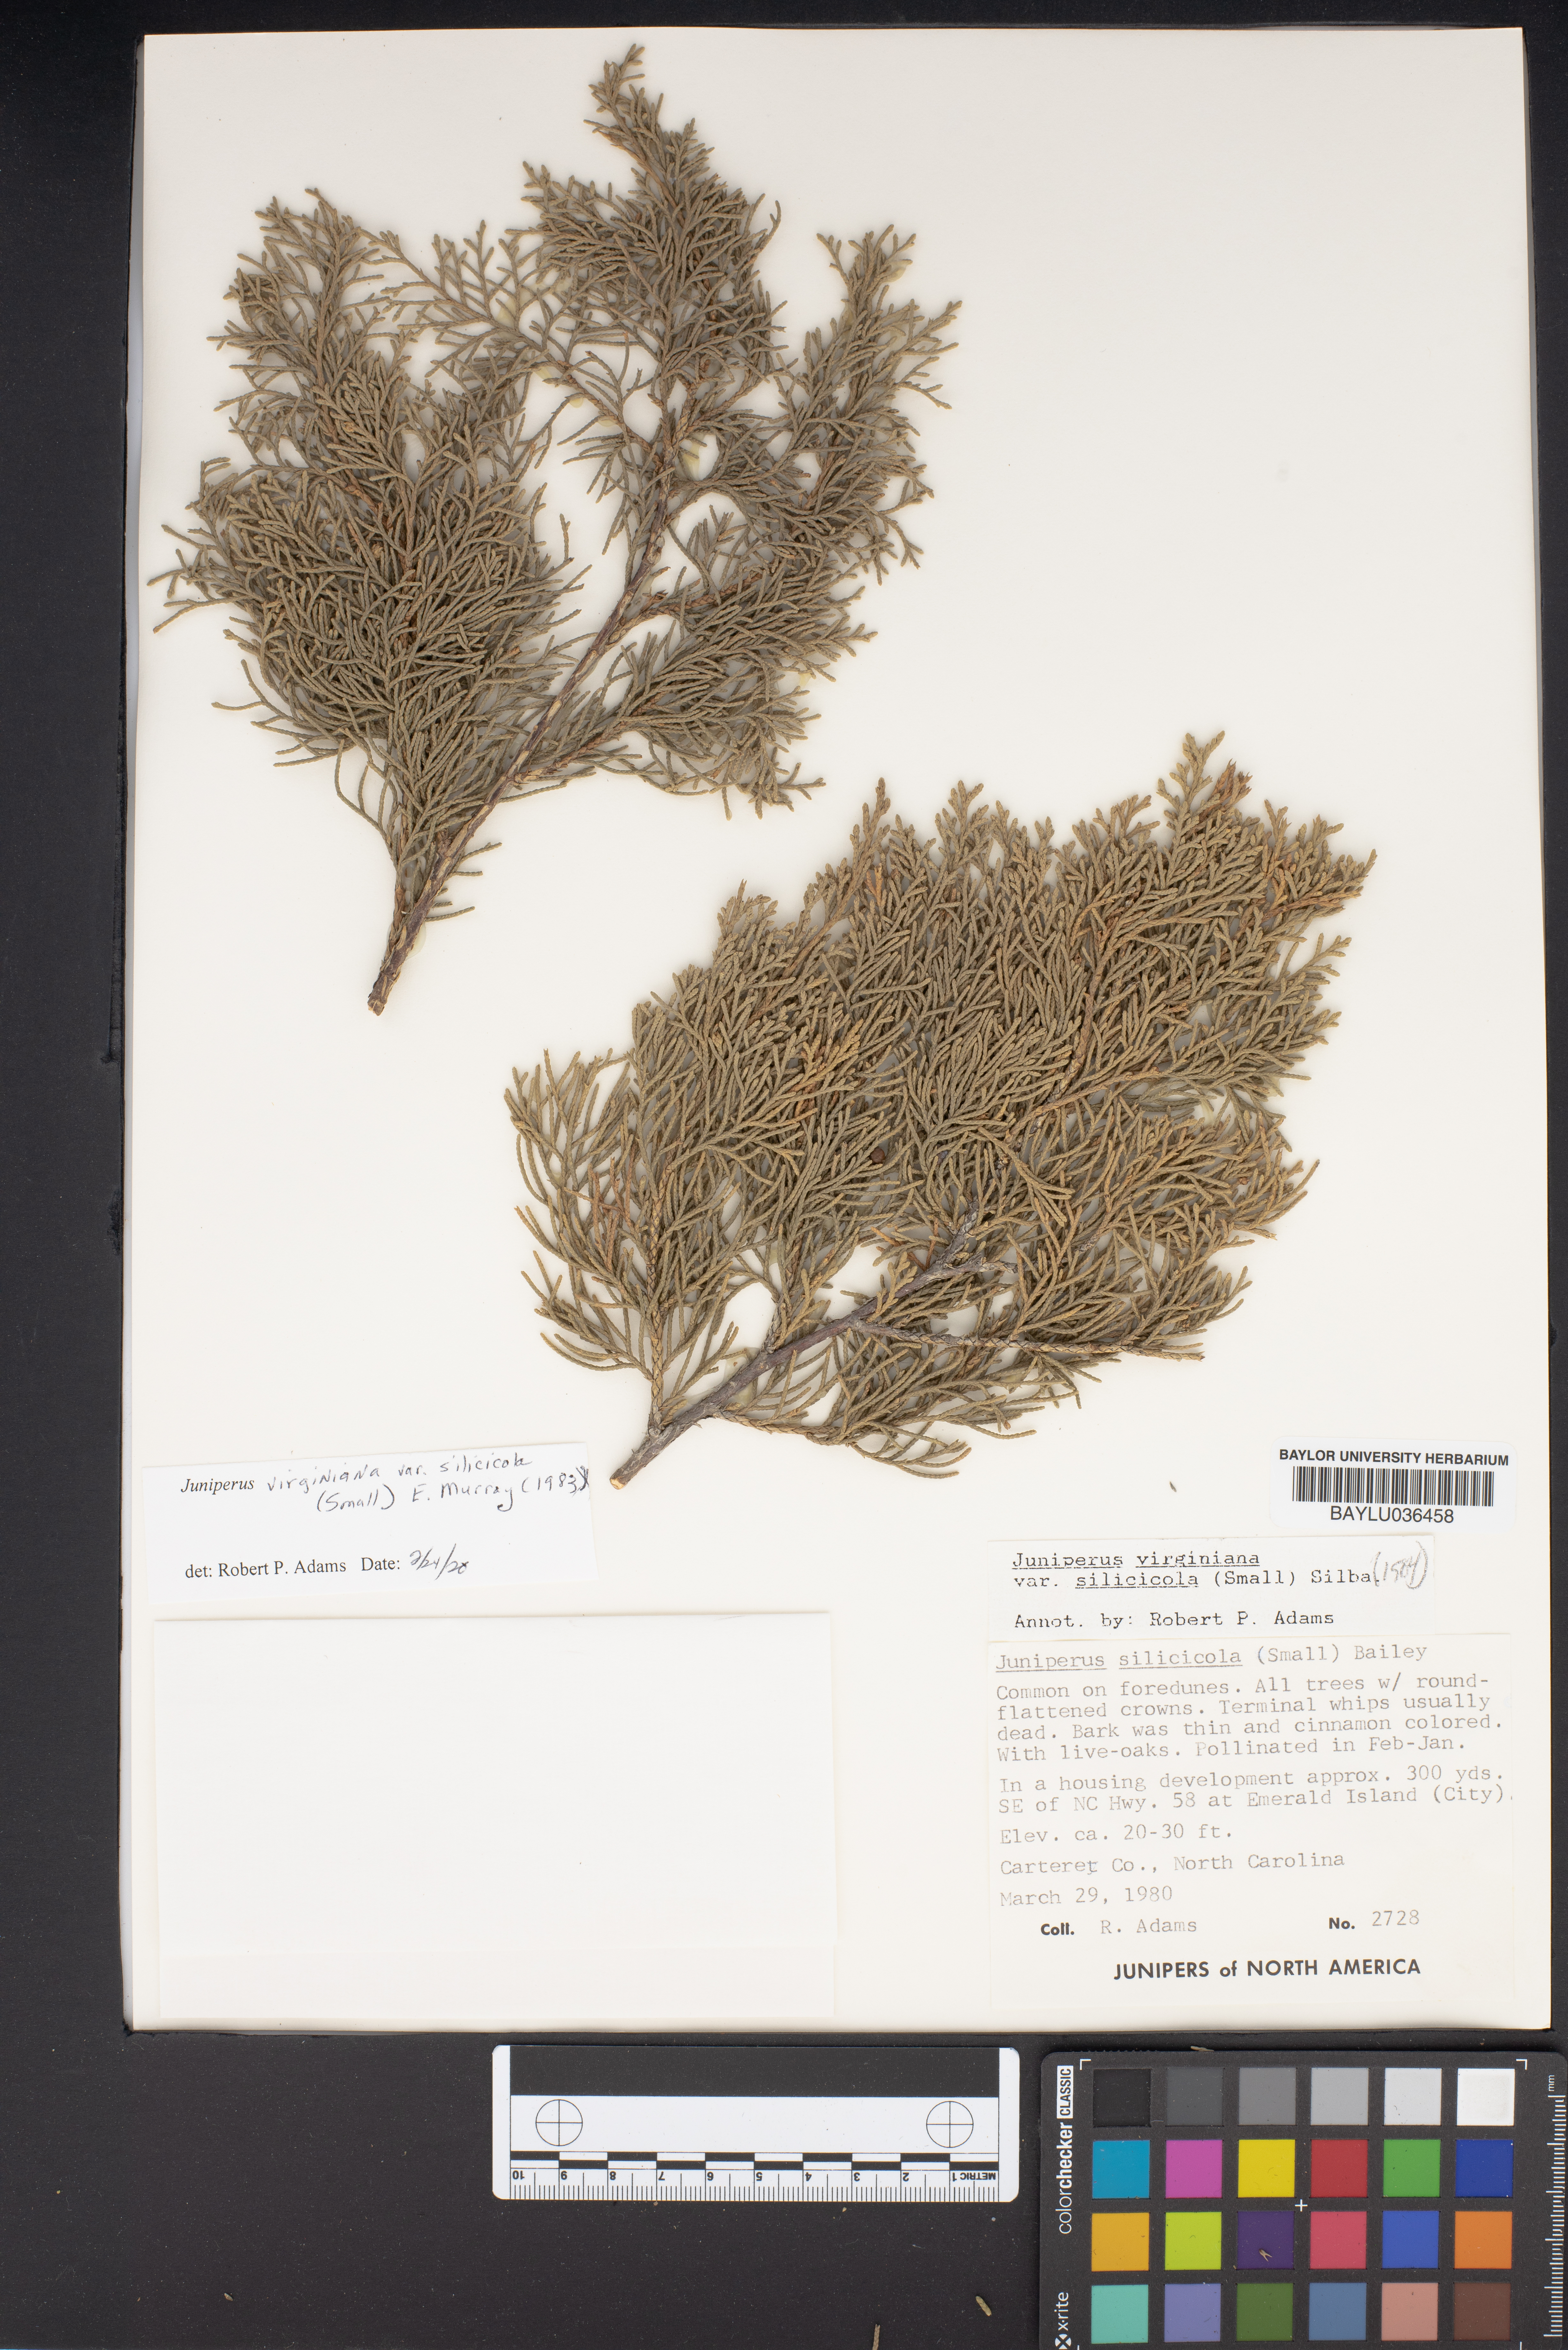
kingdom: Plantae
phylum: Tracheophyta
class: Pinopsida
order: Pinales
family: Cupressaceae
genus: Juniperus
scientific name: Juniperus virginiana
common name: Red juniper
